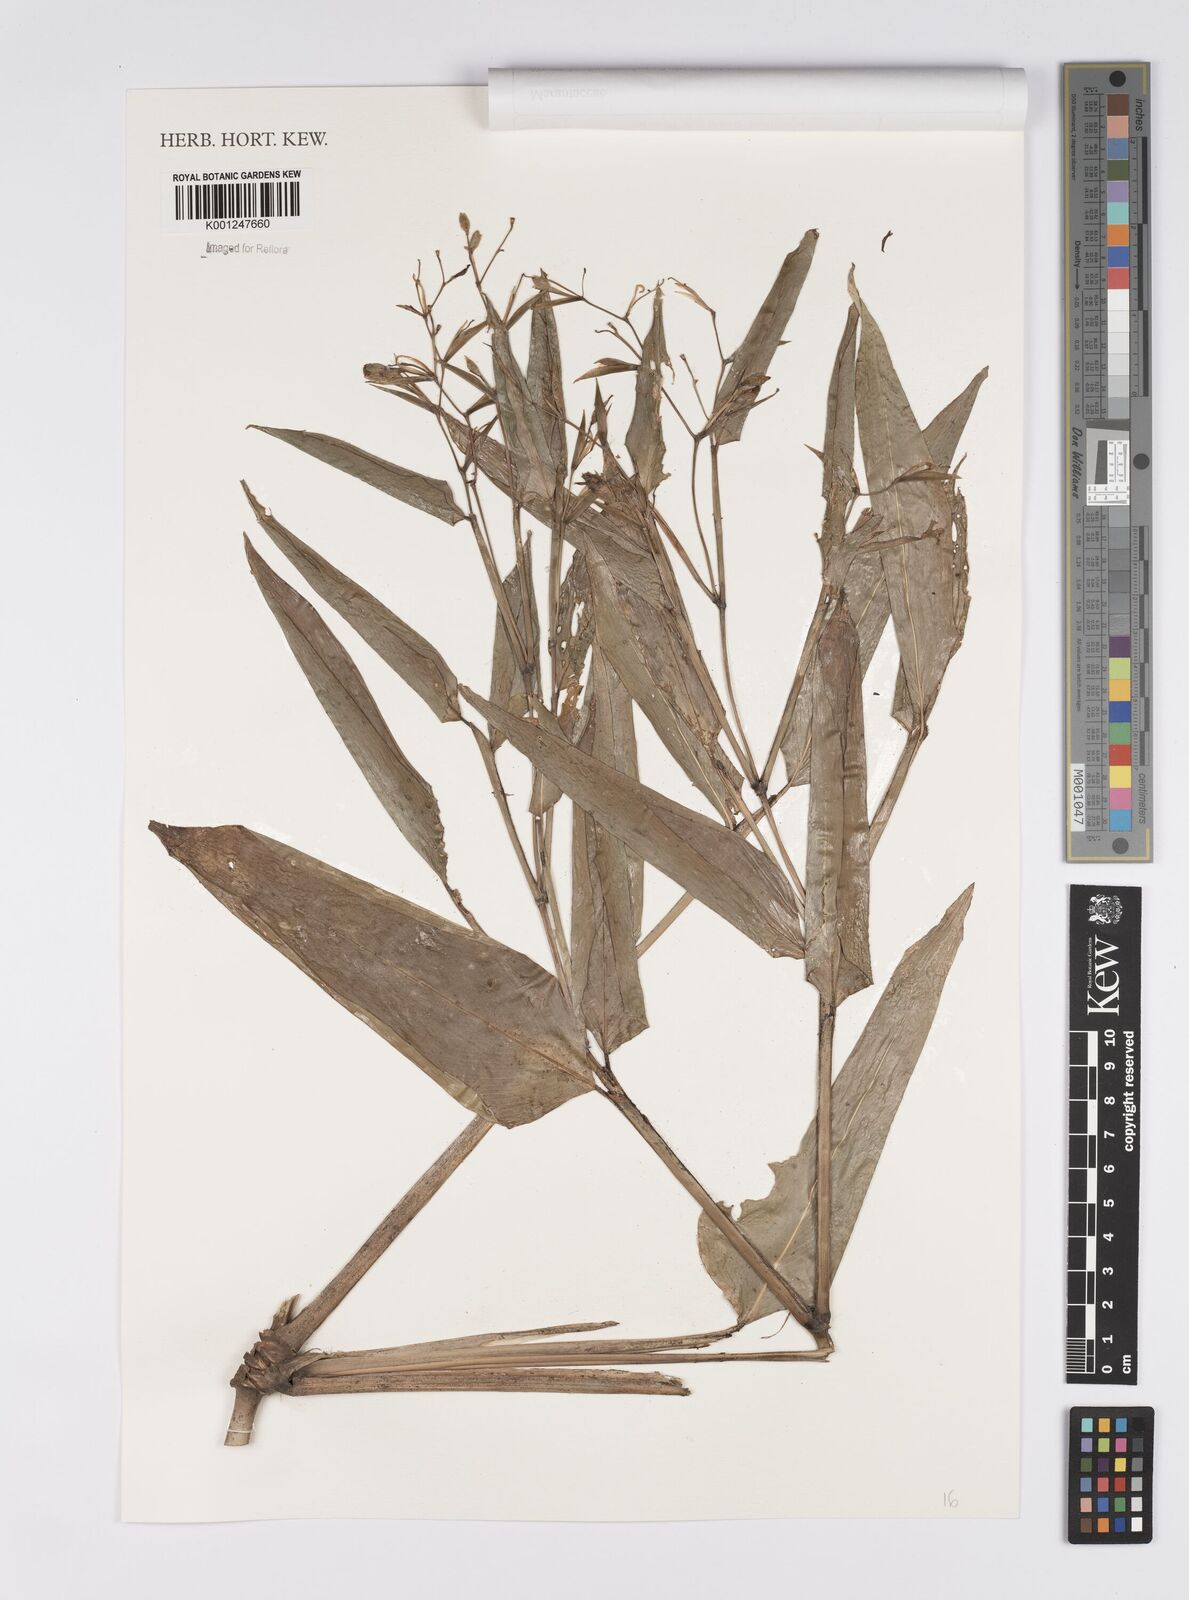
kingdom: Plantae
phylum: Tracheophyta
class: Liliopsida
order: Zingiberales
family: Marantaceae
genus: Stromanthe
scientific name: Stromanthe tonckat
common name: Stromanthe
